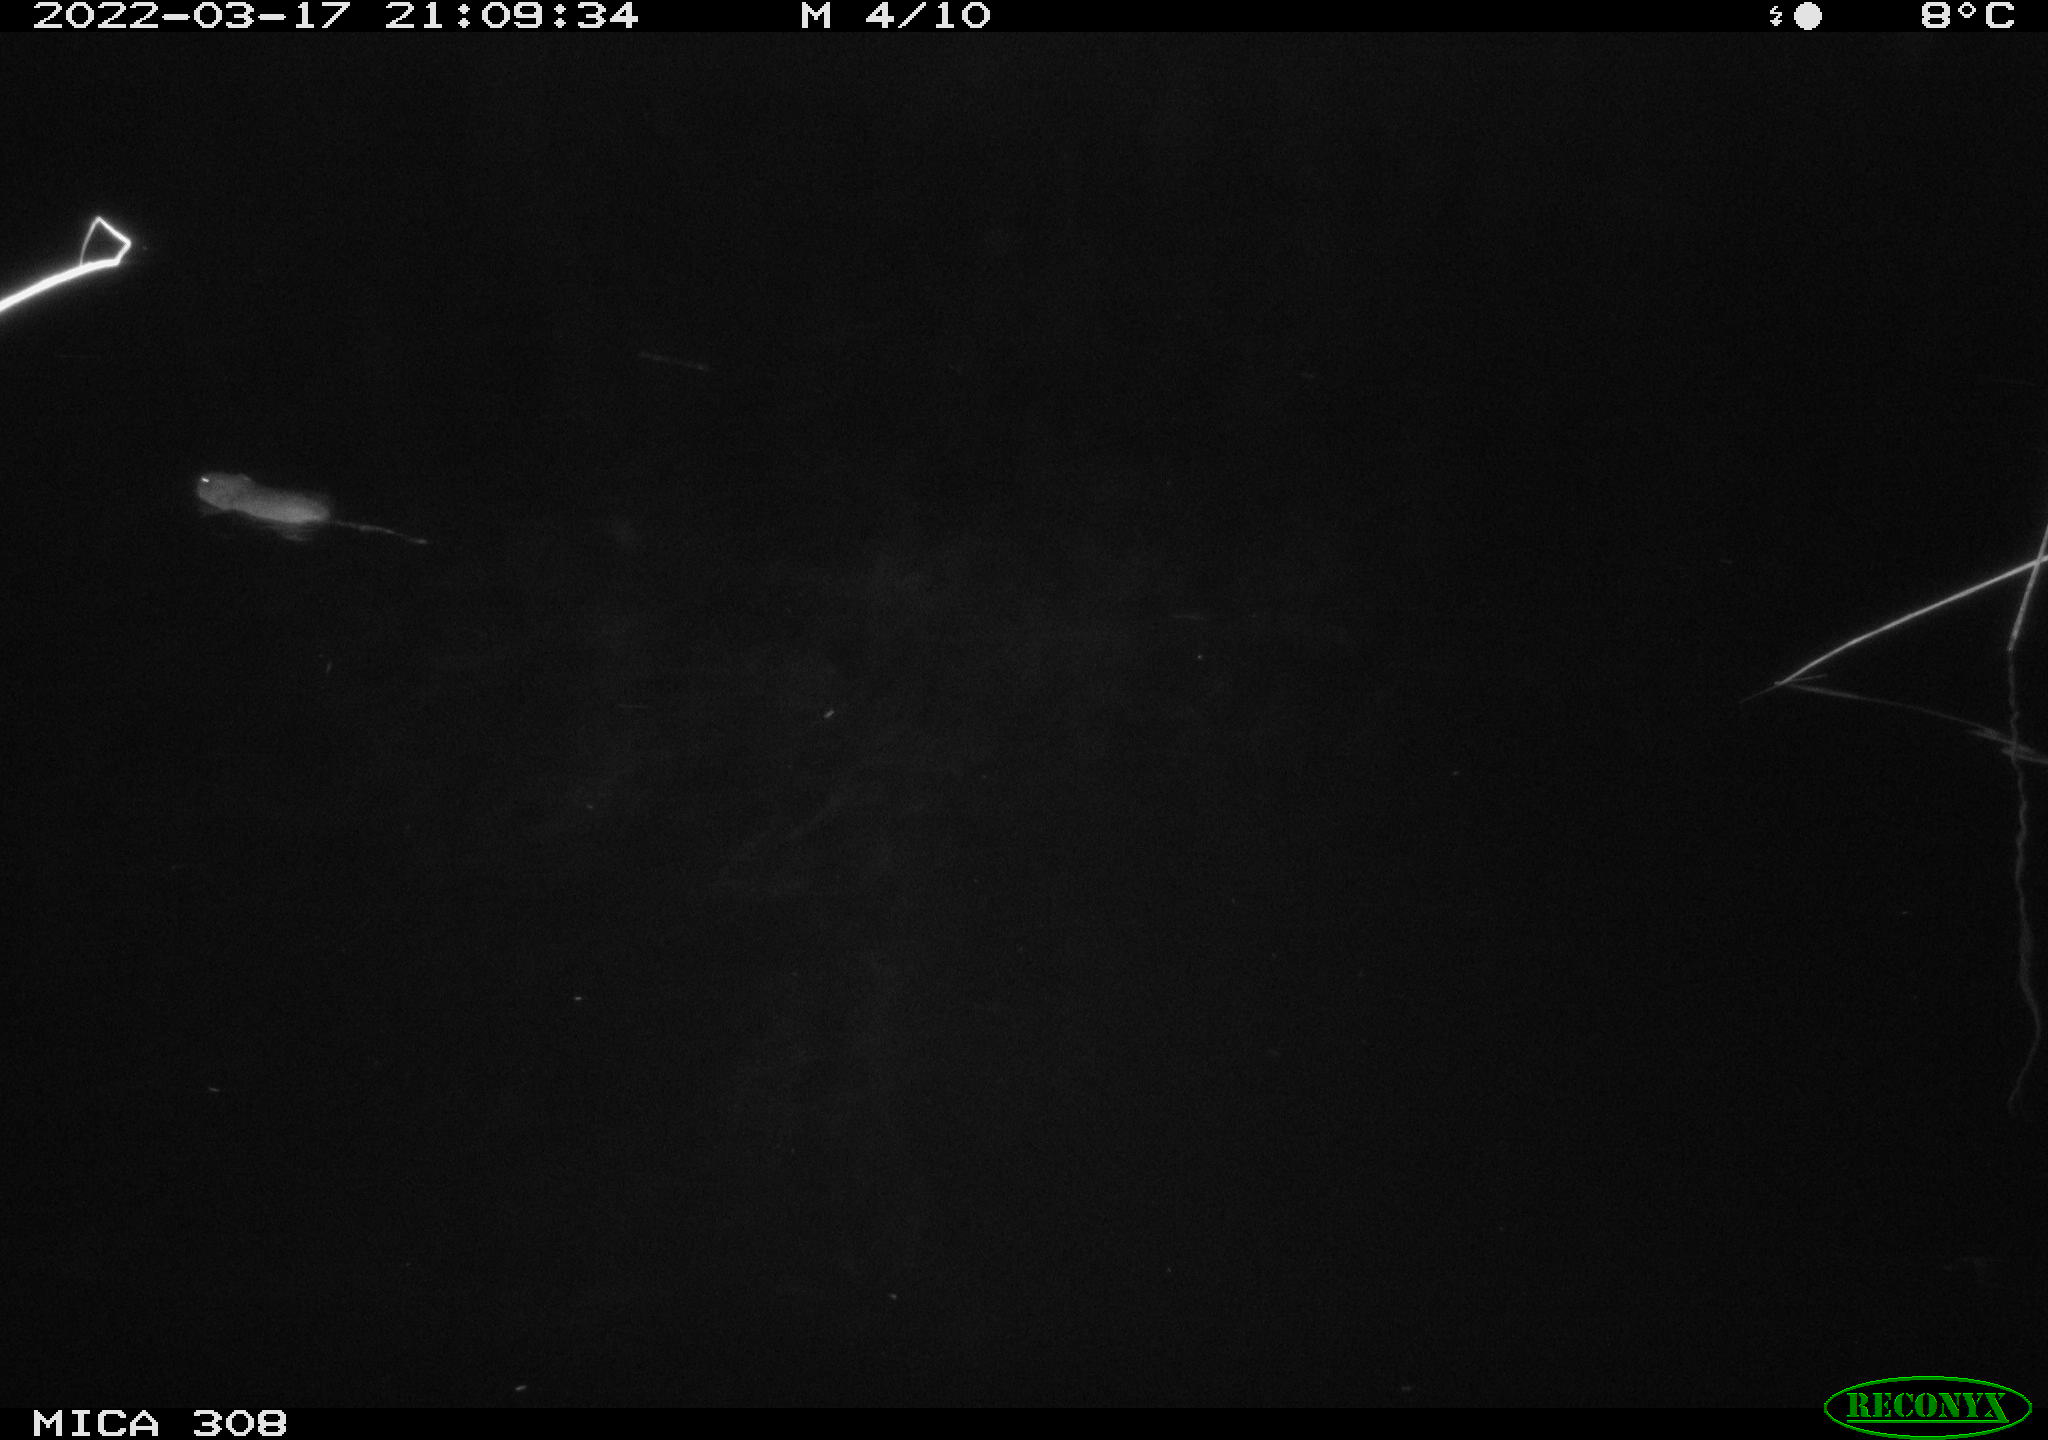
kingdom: Animalia
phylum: Chordata
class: Mammalia
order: Rodentia
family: Cricetidae
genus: Ondatra
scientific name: Ondatra zibethicus
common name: Muskrat
